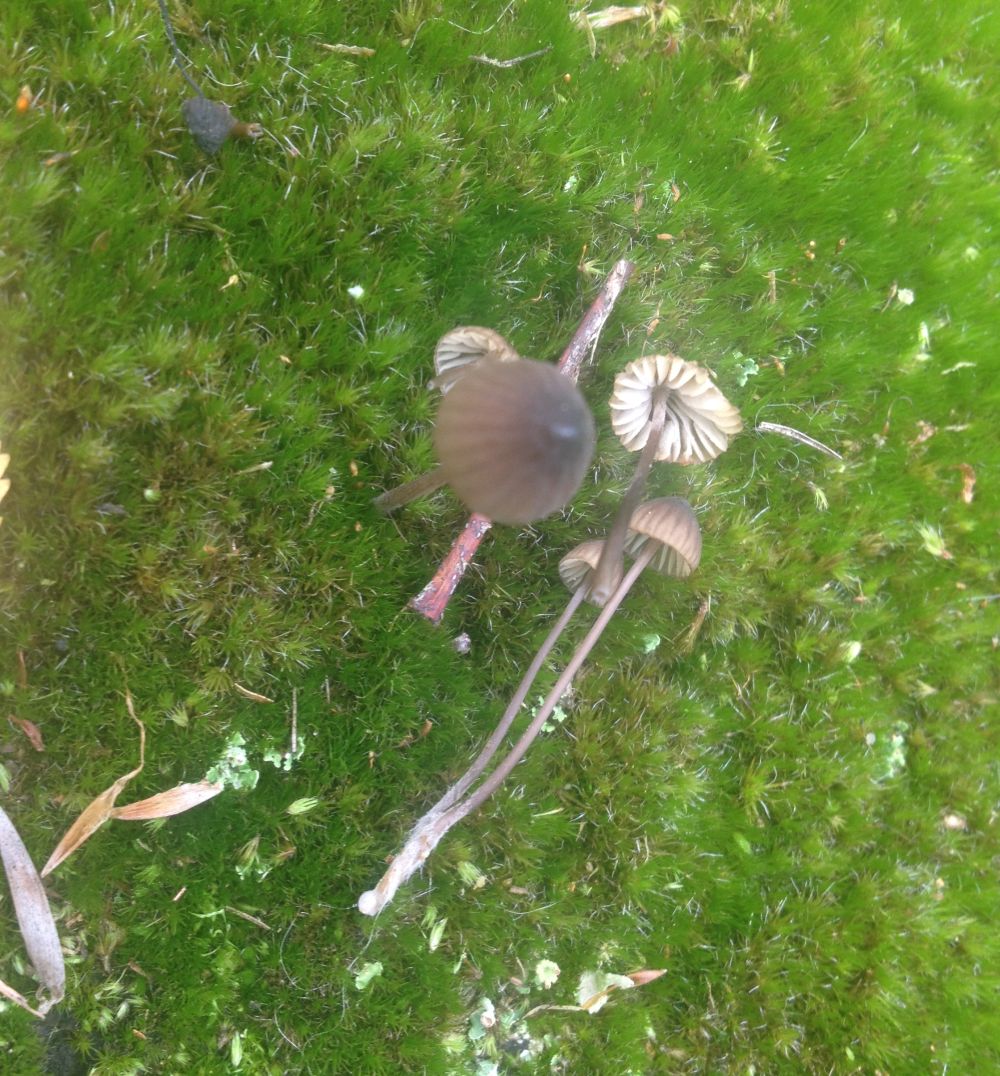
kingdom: Fungi
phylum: Basidiomycota
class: Agaricomycetes
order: Agaricales
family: Mycenaceae
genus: Mycena
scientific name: Mycena galopus
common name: hvidmælket huesvamp
